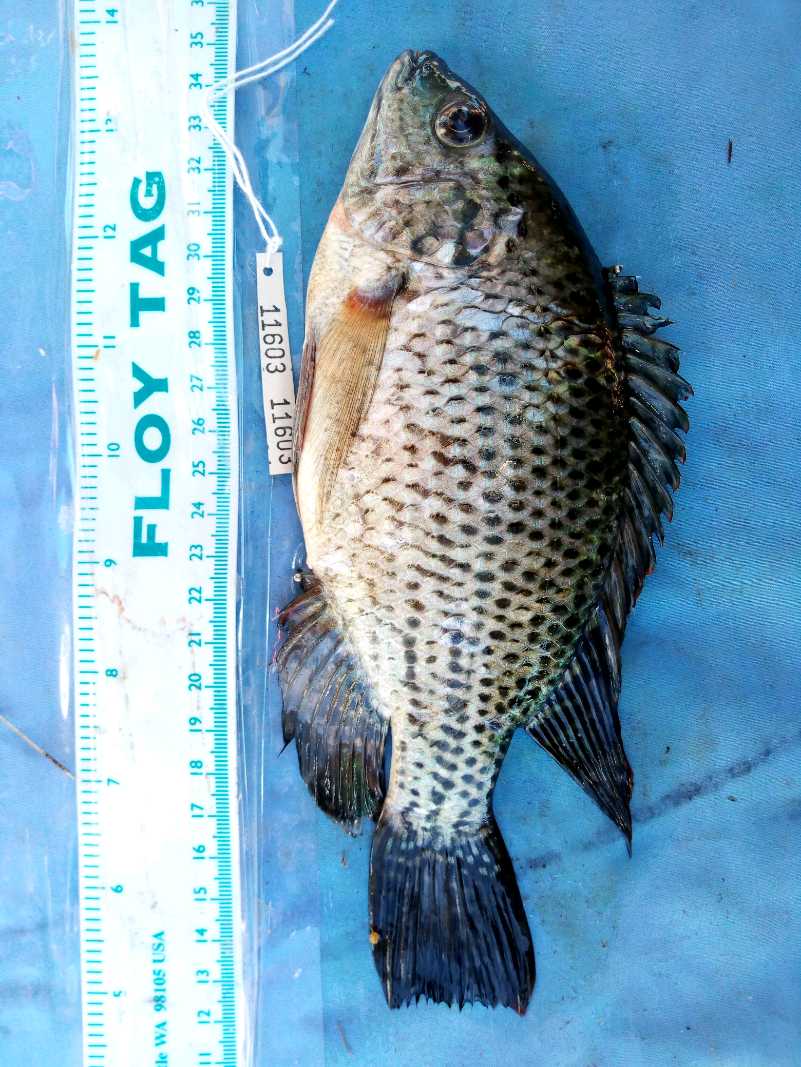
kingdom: Animalia
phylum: Chordata
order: Perciformes
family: Cichlidae
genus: Oreochromis
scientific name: Oreochromis jipe
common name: Jipe tilapia
